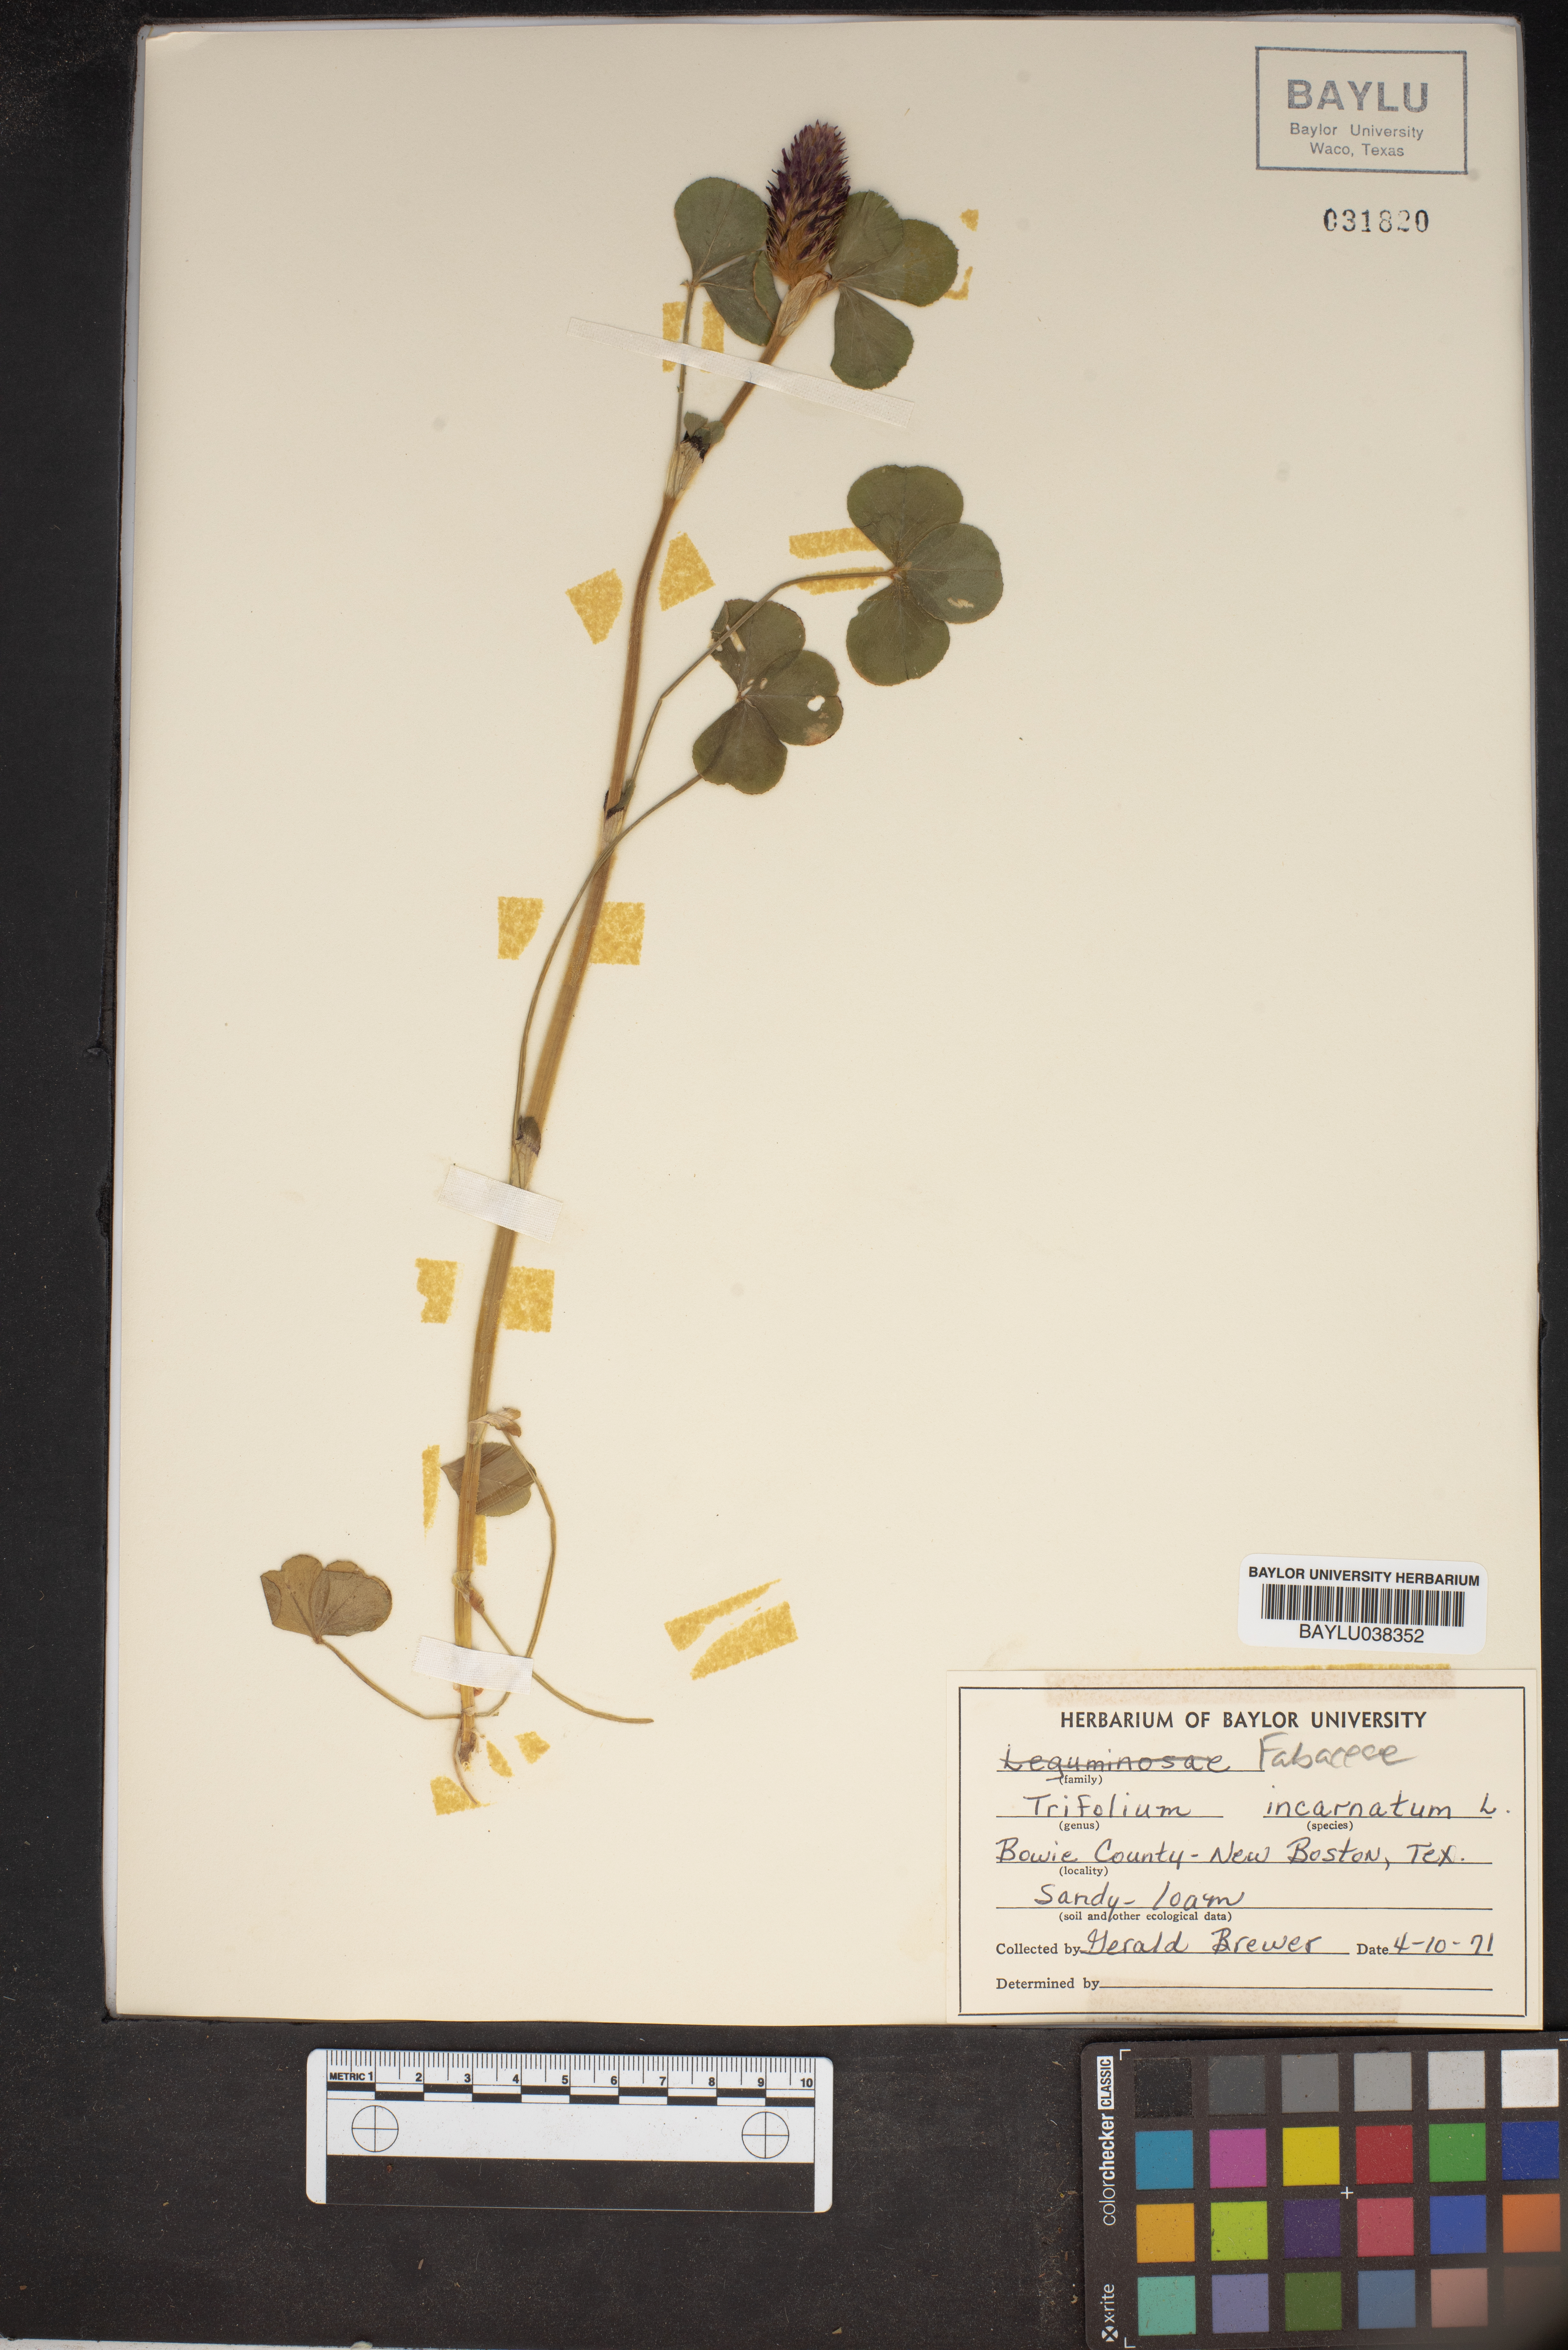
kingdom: Plantae
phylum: Tracheophyta
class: Magnoliopsida
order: Fabales
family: Fabaceae
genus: Trifolium
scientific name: Trifolium incarnatum
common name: Crimson clover
